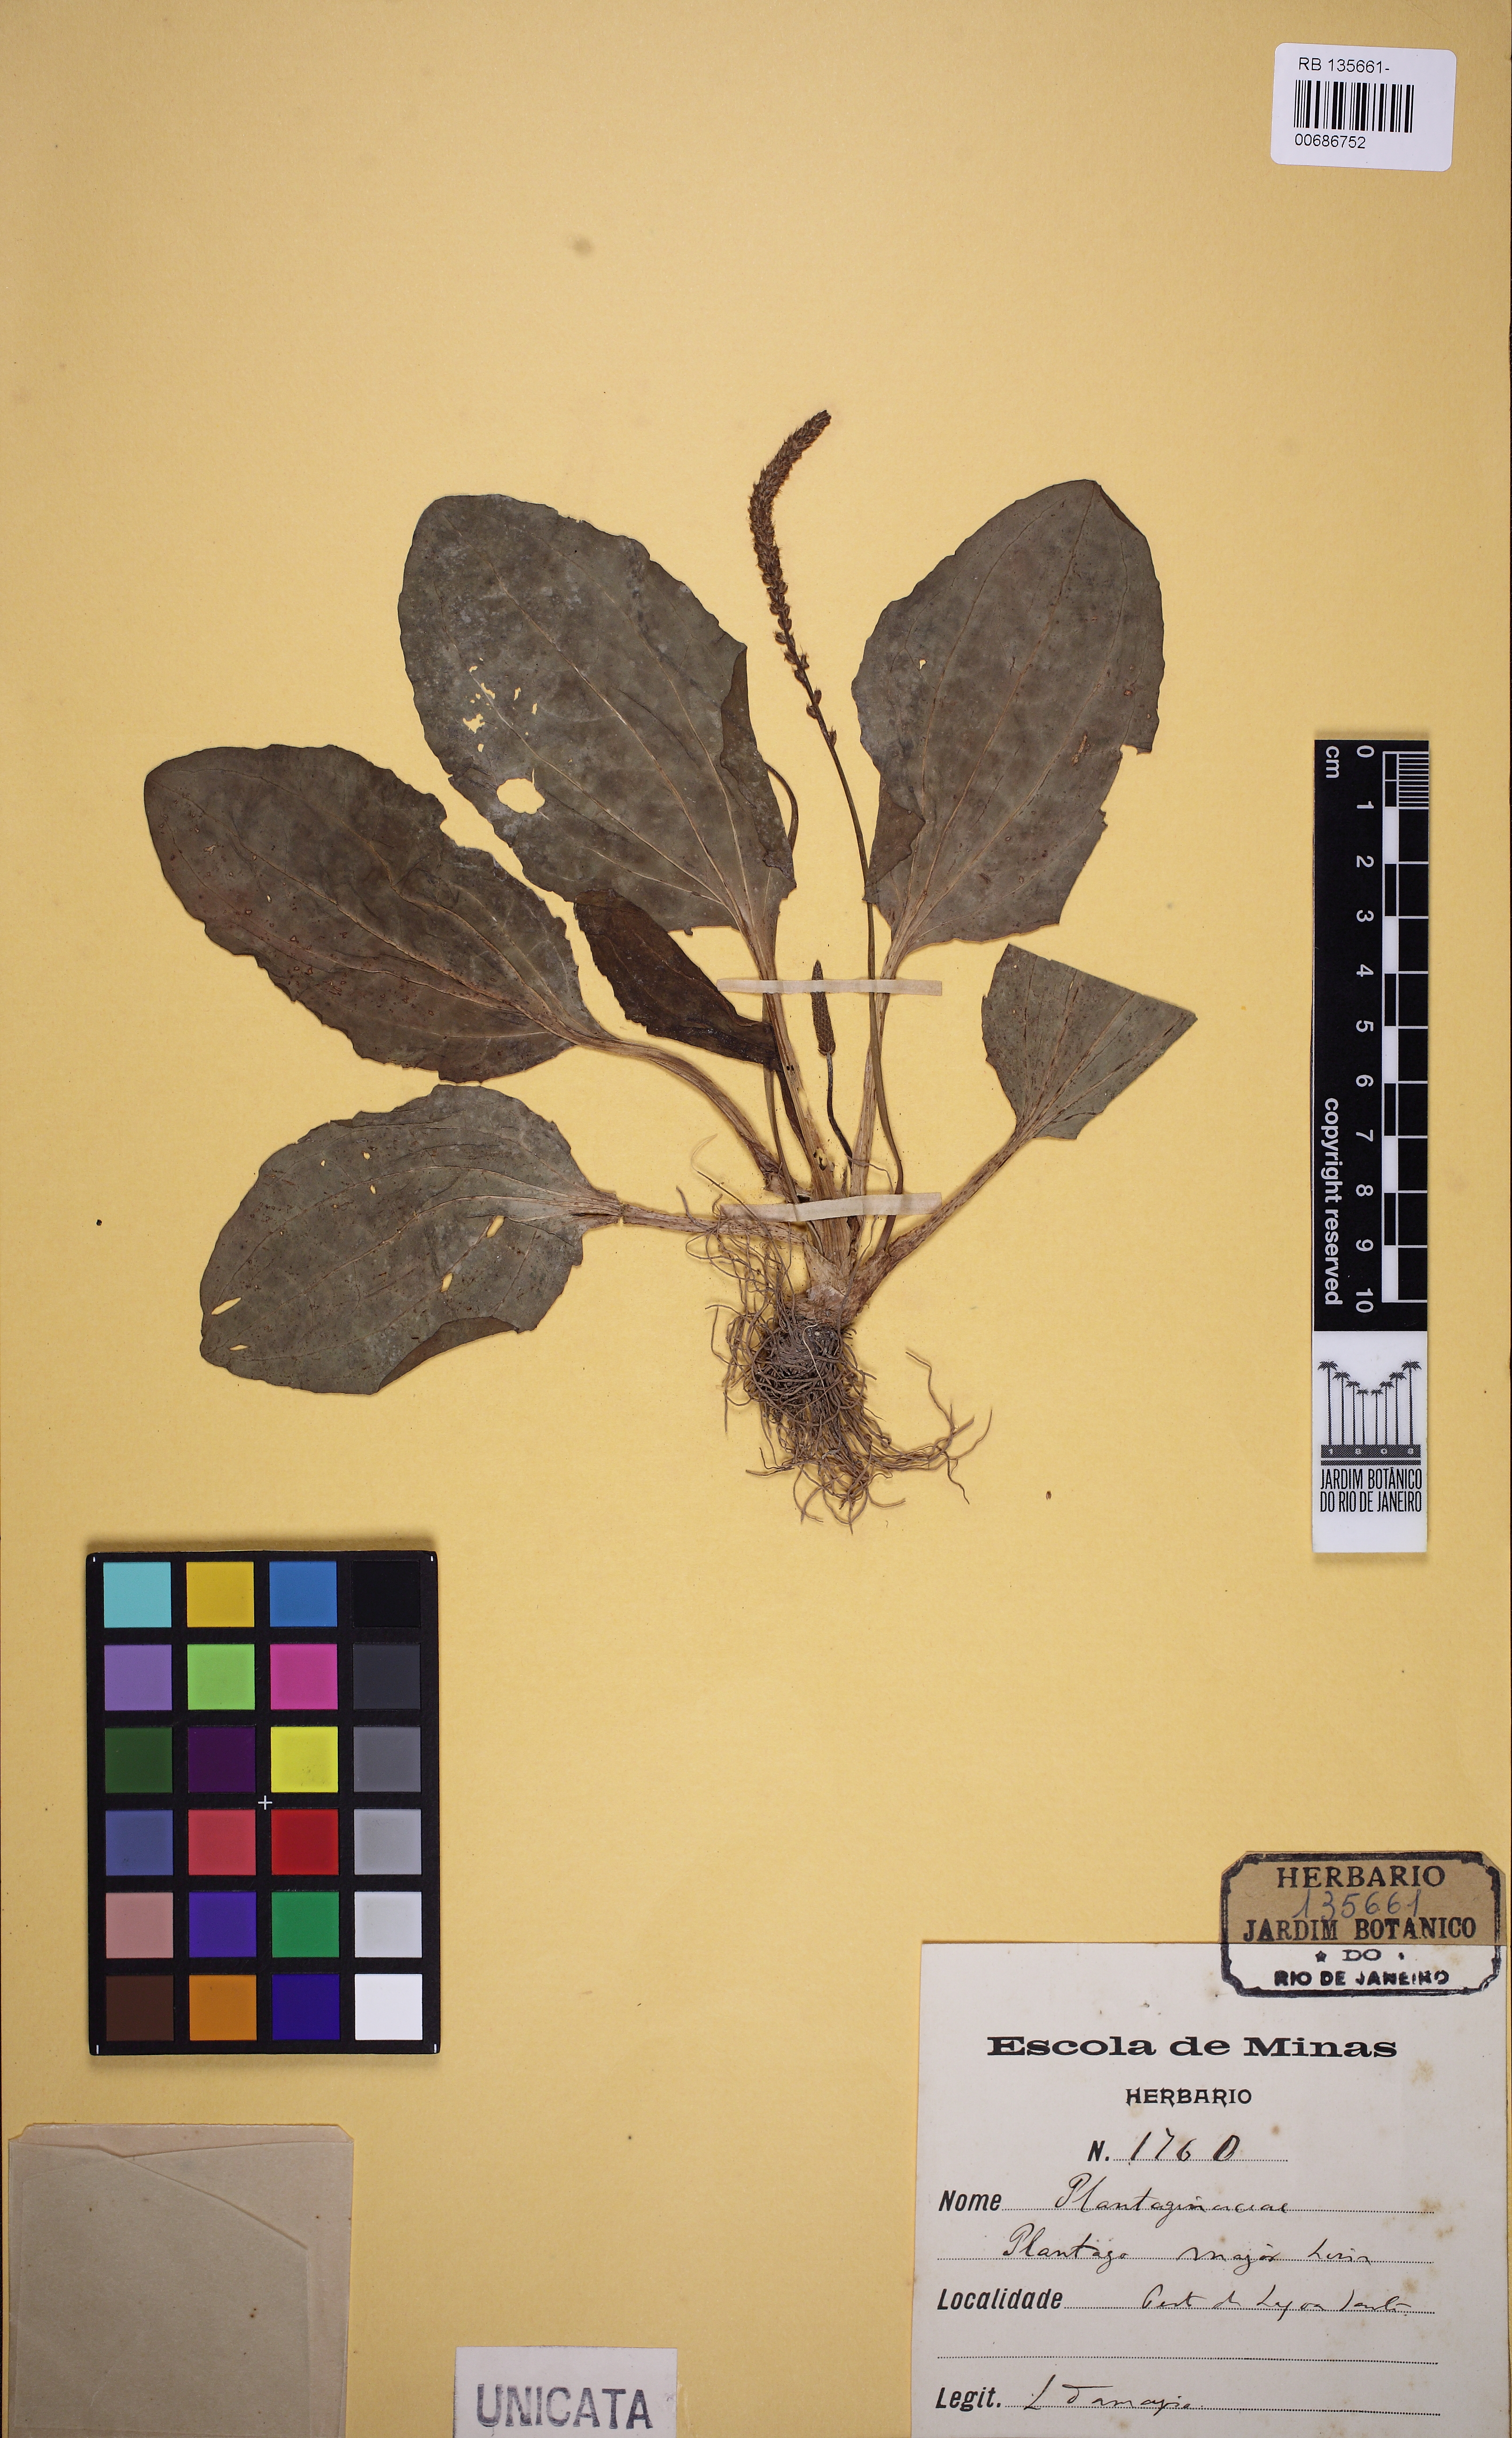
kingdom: Plantae
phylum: Tracheophyta
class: Magnoliopsida
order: Lamiales
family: Plantaginaceae
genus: Plantago
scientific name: Plantago major
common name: Common plantain
